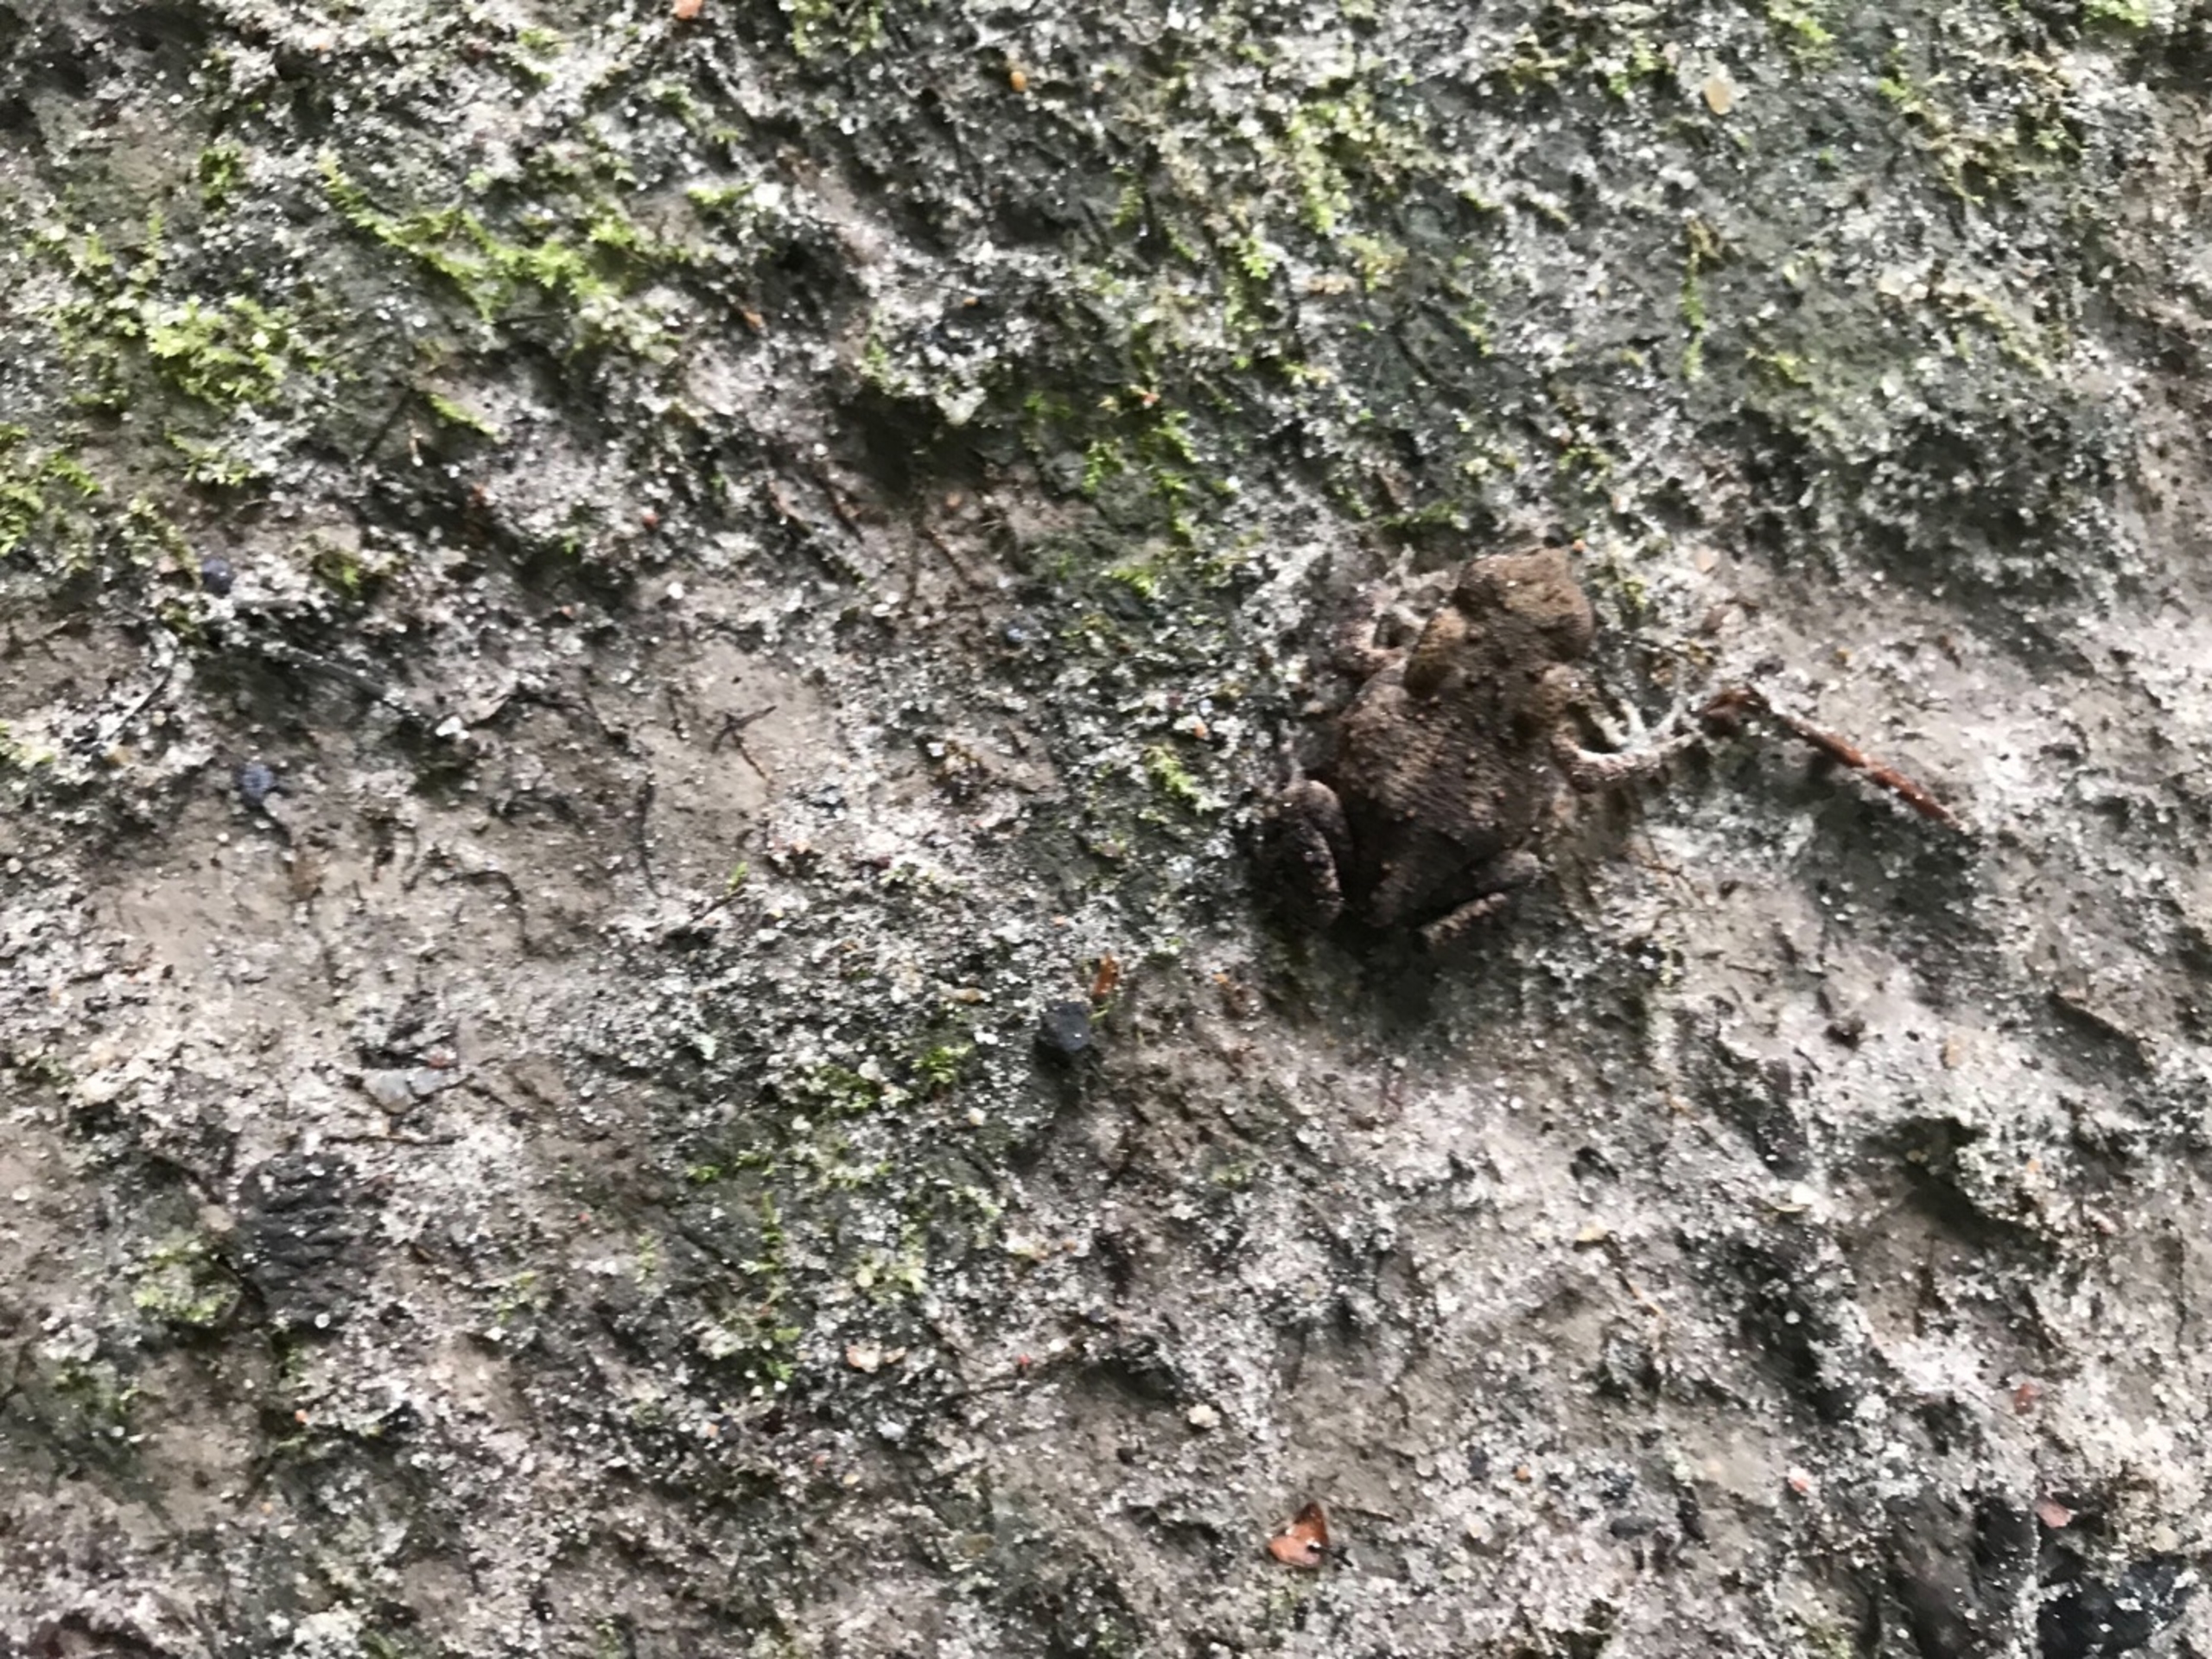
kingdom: Animalia
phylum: Chordata
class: Amphibia
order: Anura
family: Bufonidae
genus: Bufo
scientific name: Bufo bufo
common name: Skrubtudse
